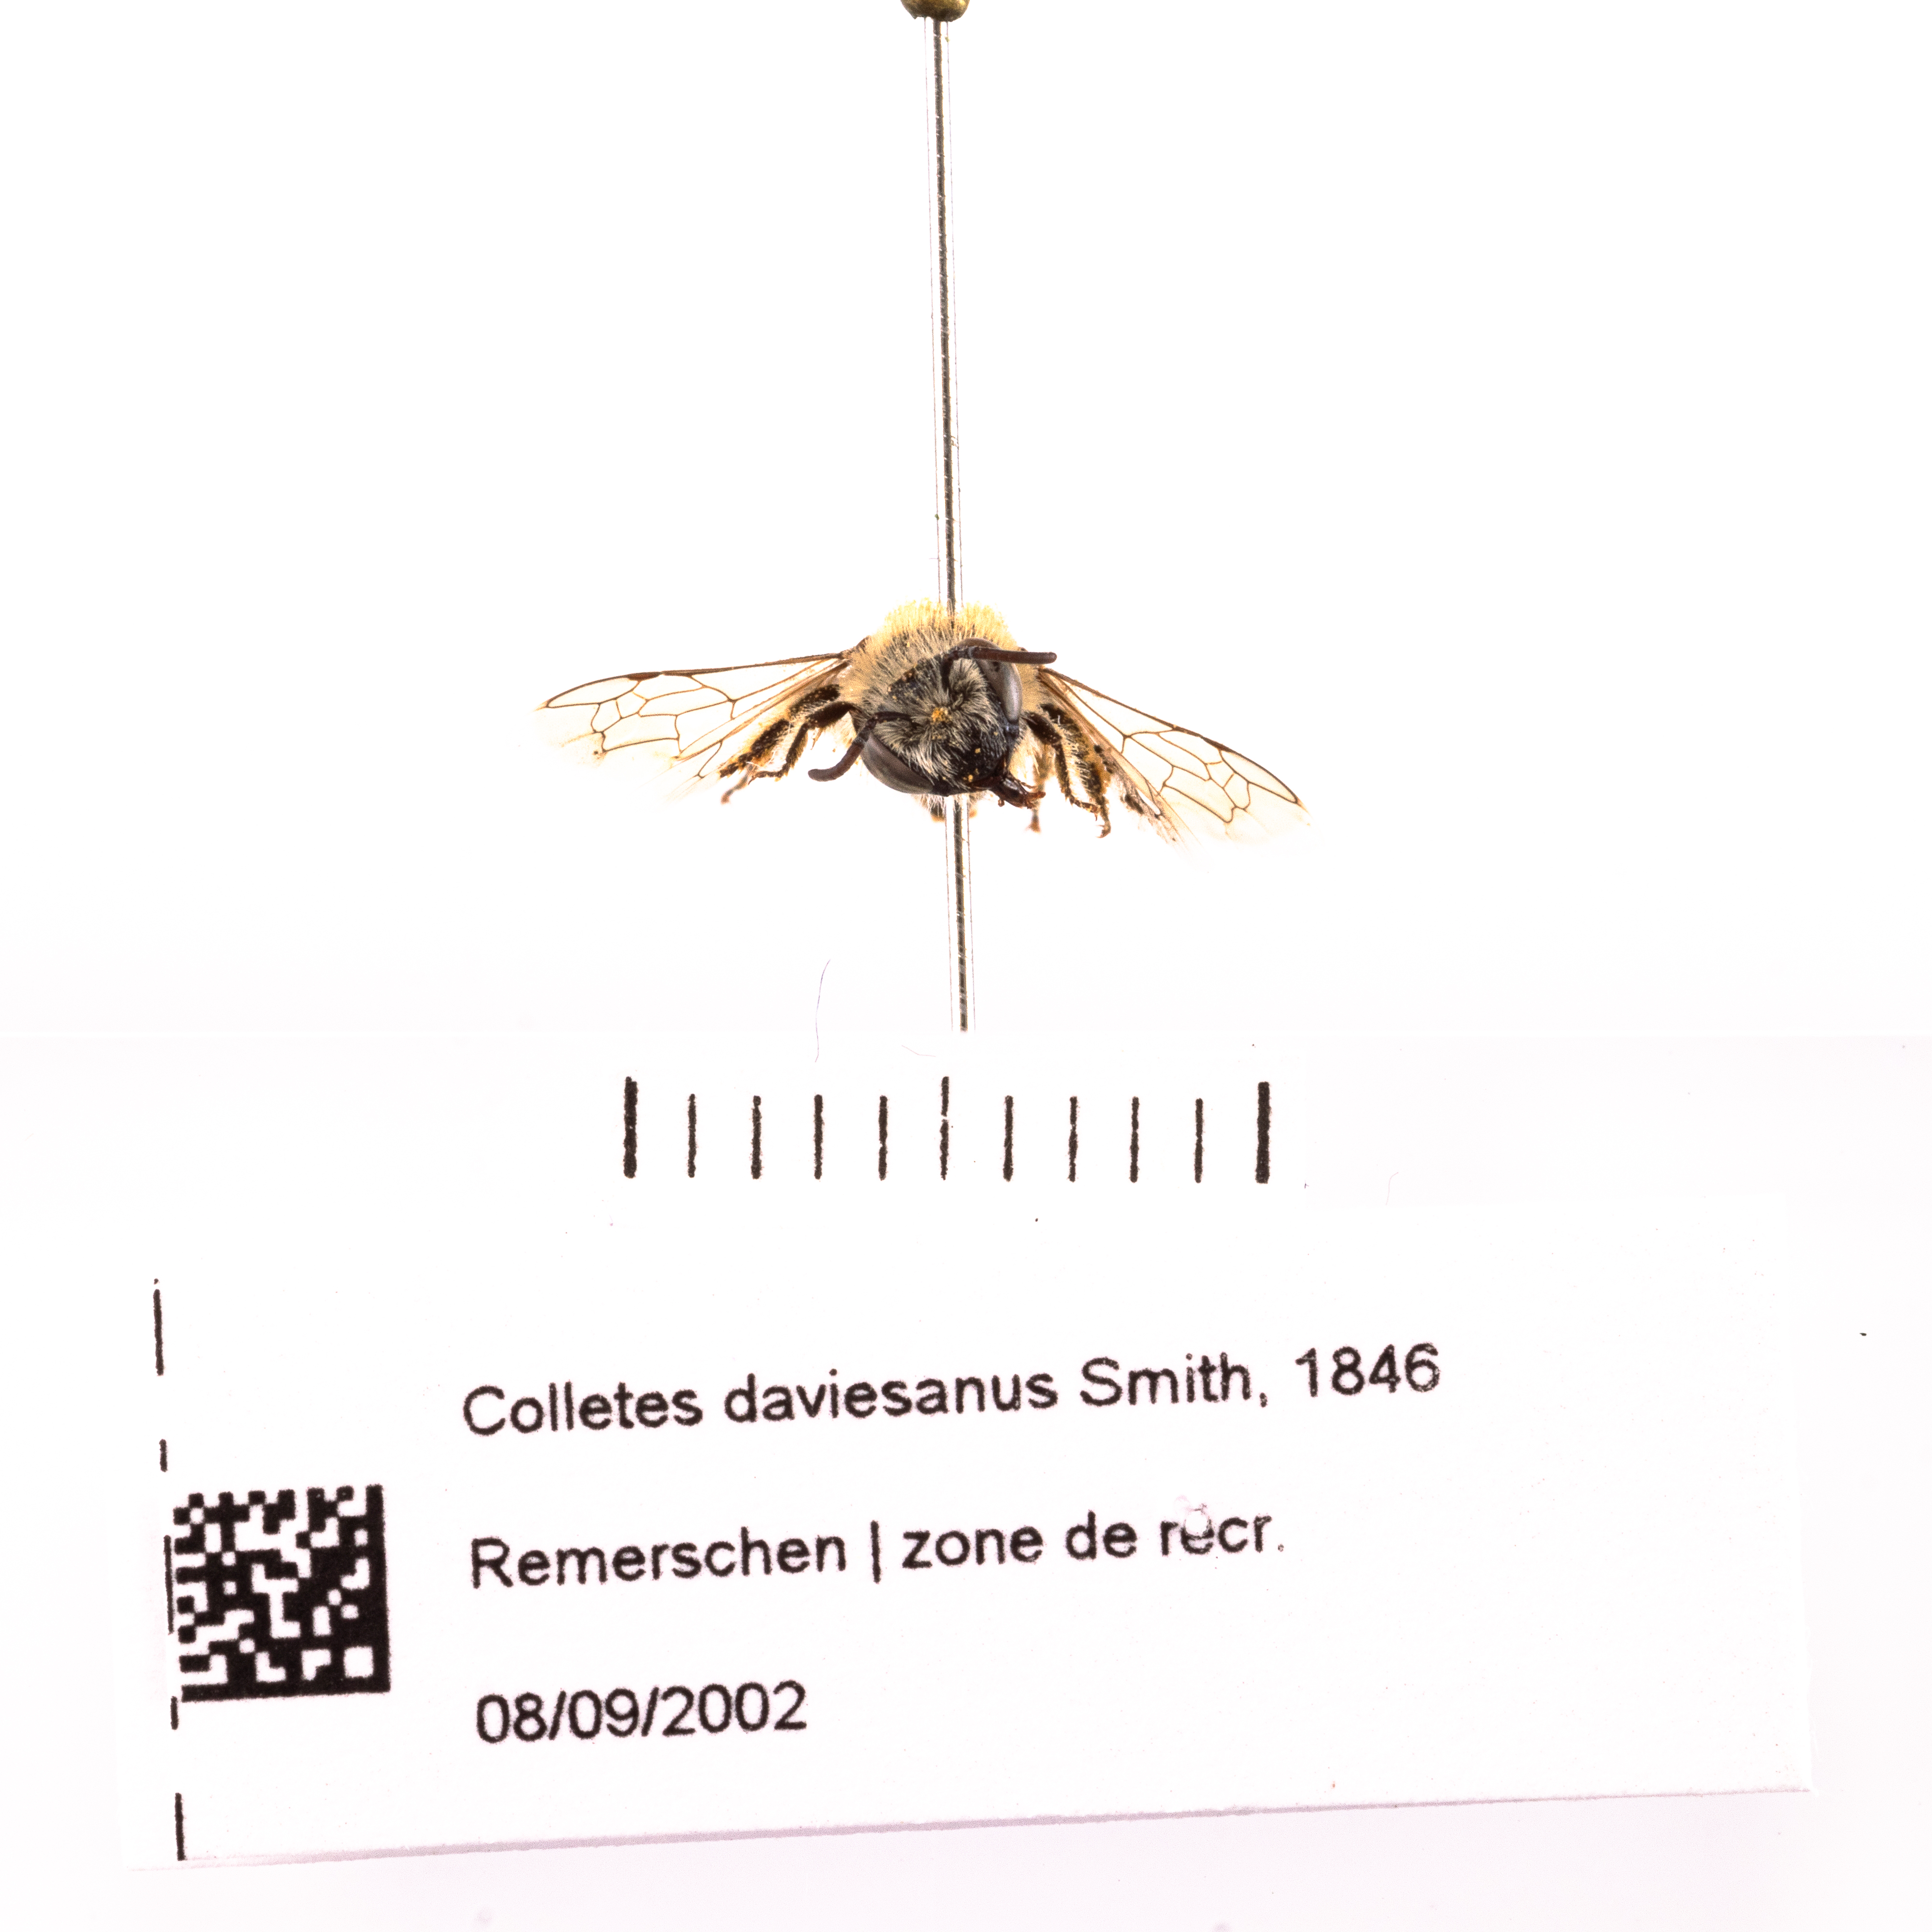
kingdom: Animalia
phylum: Arthropoda
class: Insecta
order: Hymenoptera
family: Colletidae
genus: Colletes
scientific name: Colletes daviesanus
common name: Davies' colletes
